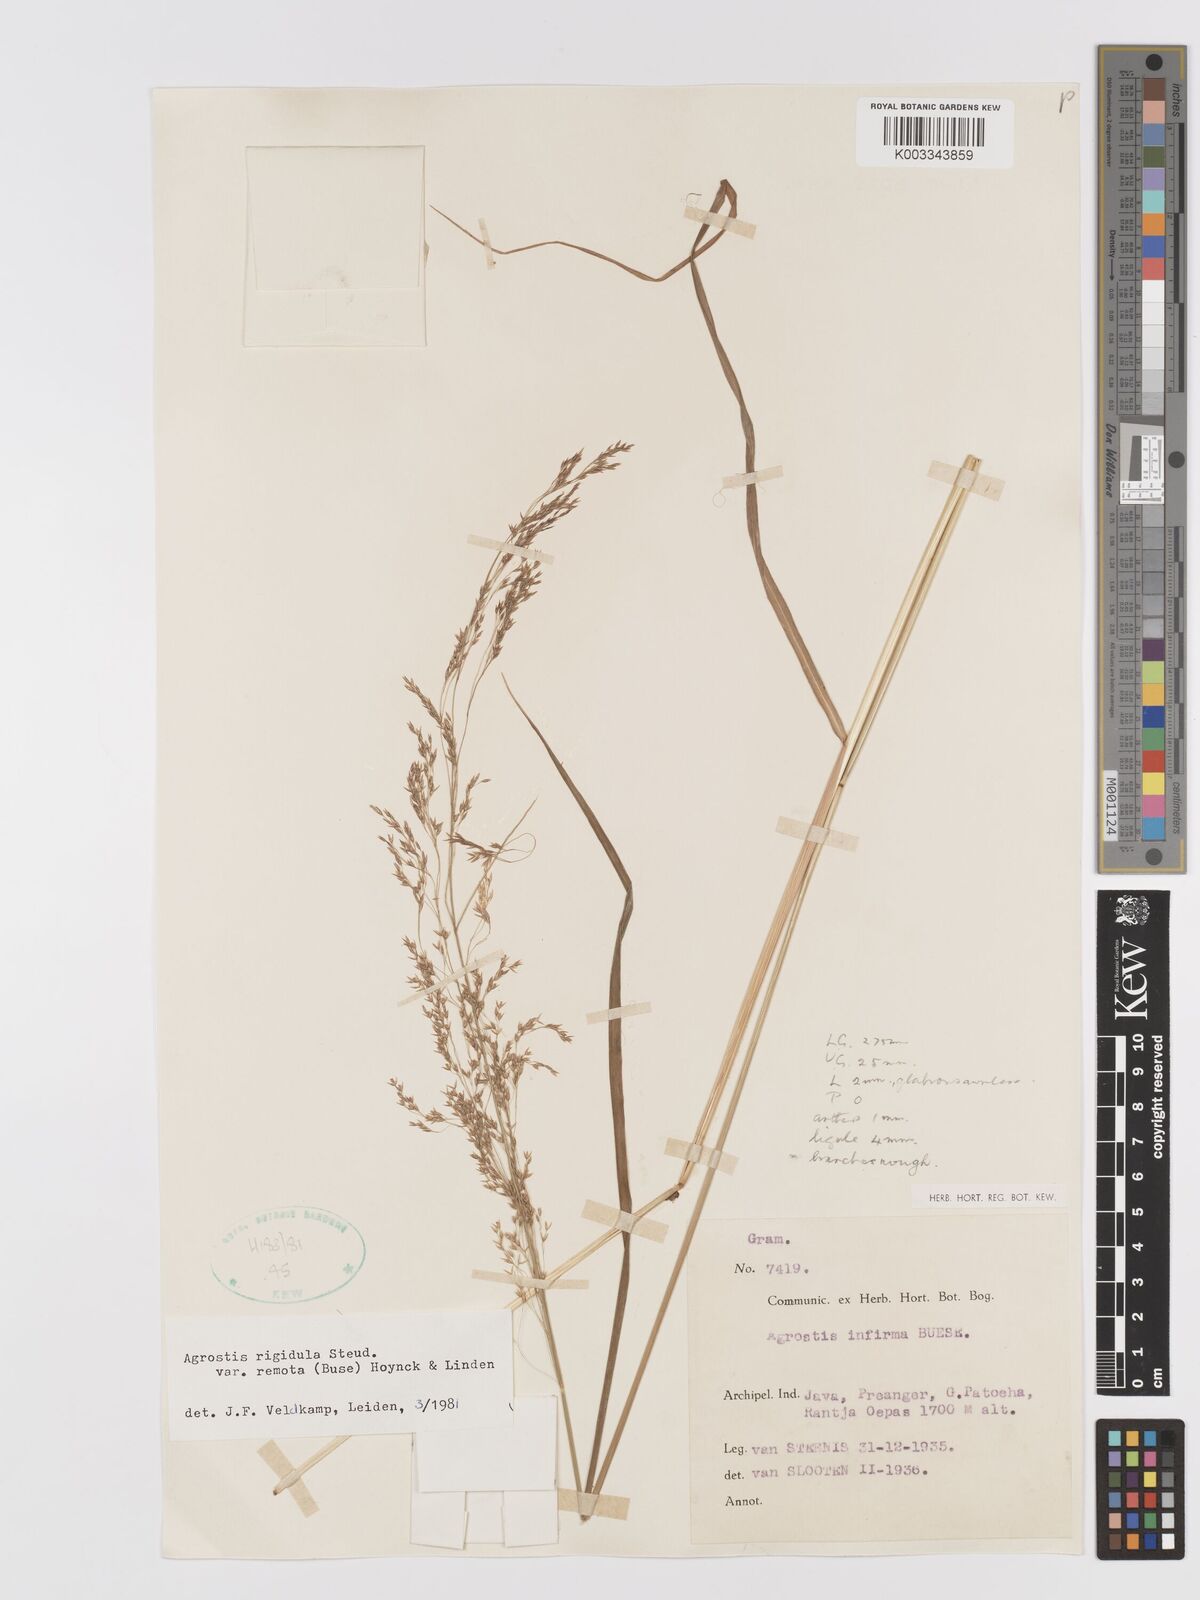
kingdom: Plantae
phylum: Tracheophyta
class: Liliopsida
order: Poales
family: Poaceae
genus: Agrostis
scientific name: Agrostis infirma
